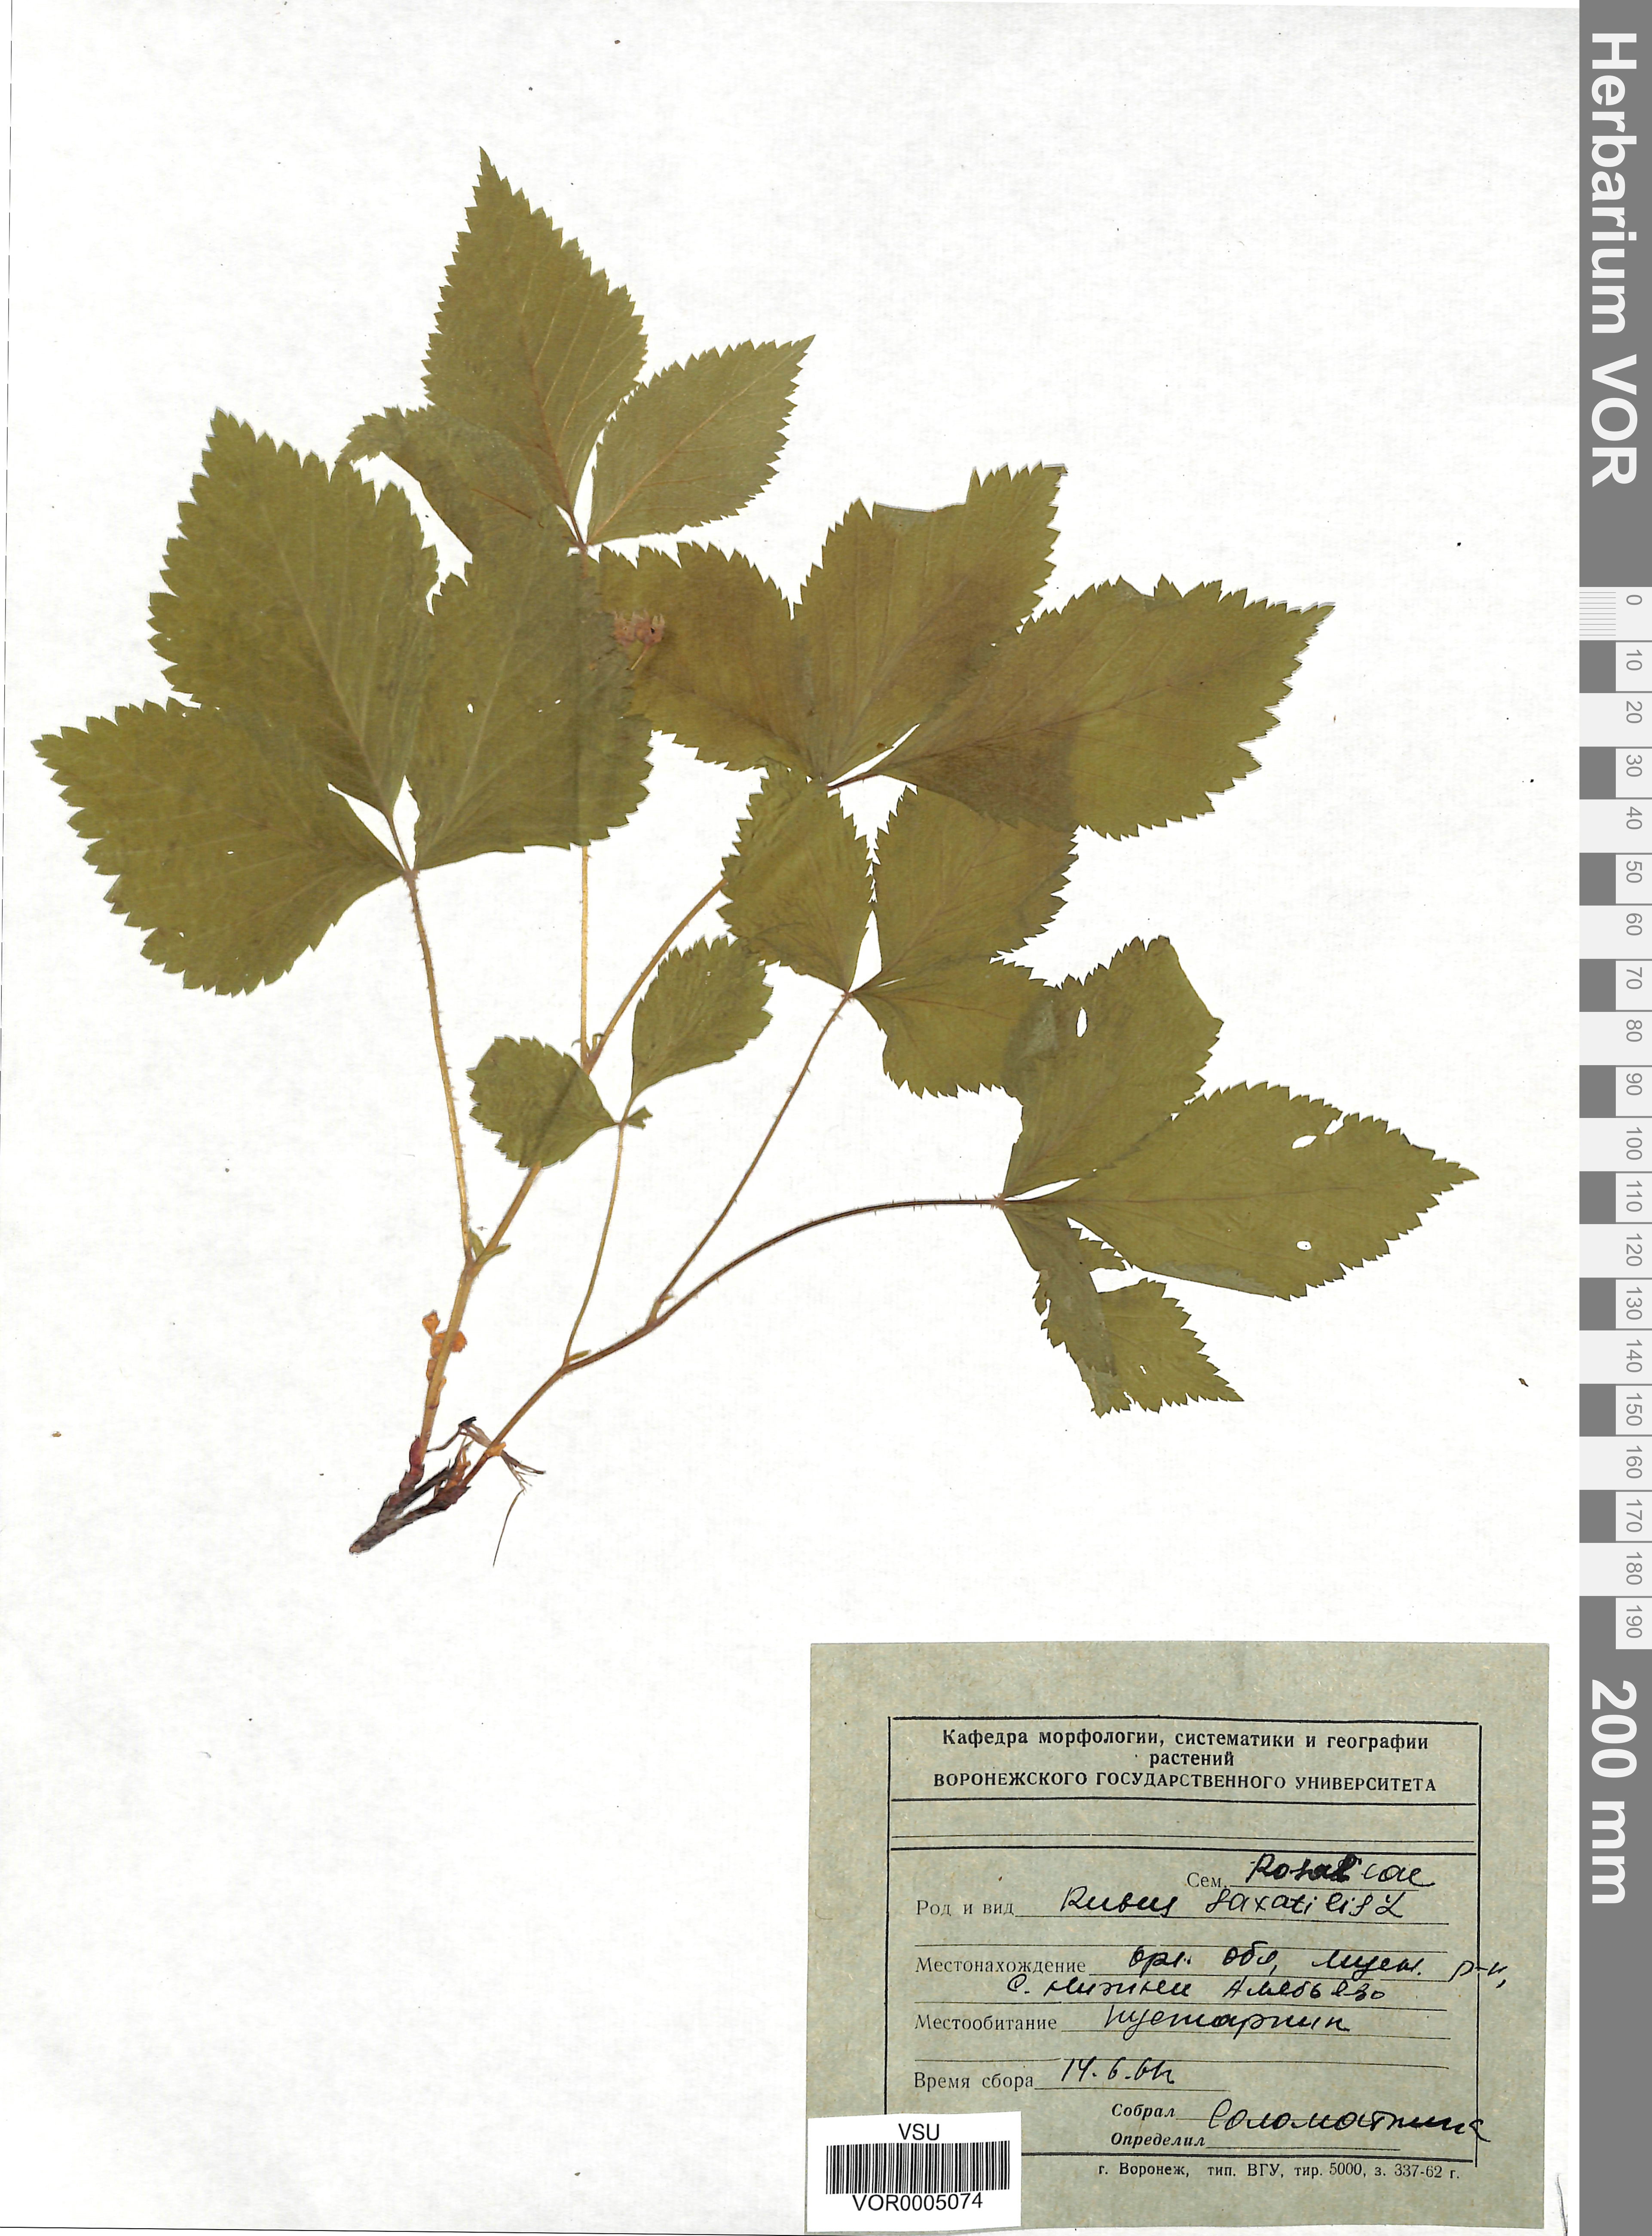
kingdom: Plantae
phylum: Tracheophyta
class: Magnoliopsida
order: Rosales
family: Rosaceae
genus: Rubus
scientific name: Rubus saxatilis
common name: Stone bramble
